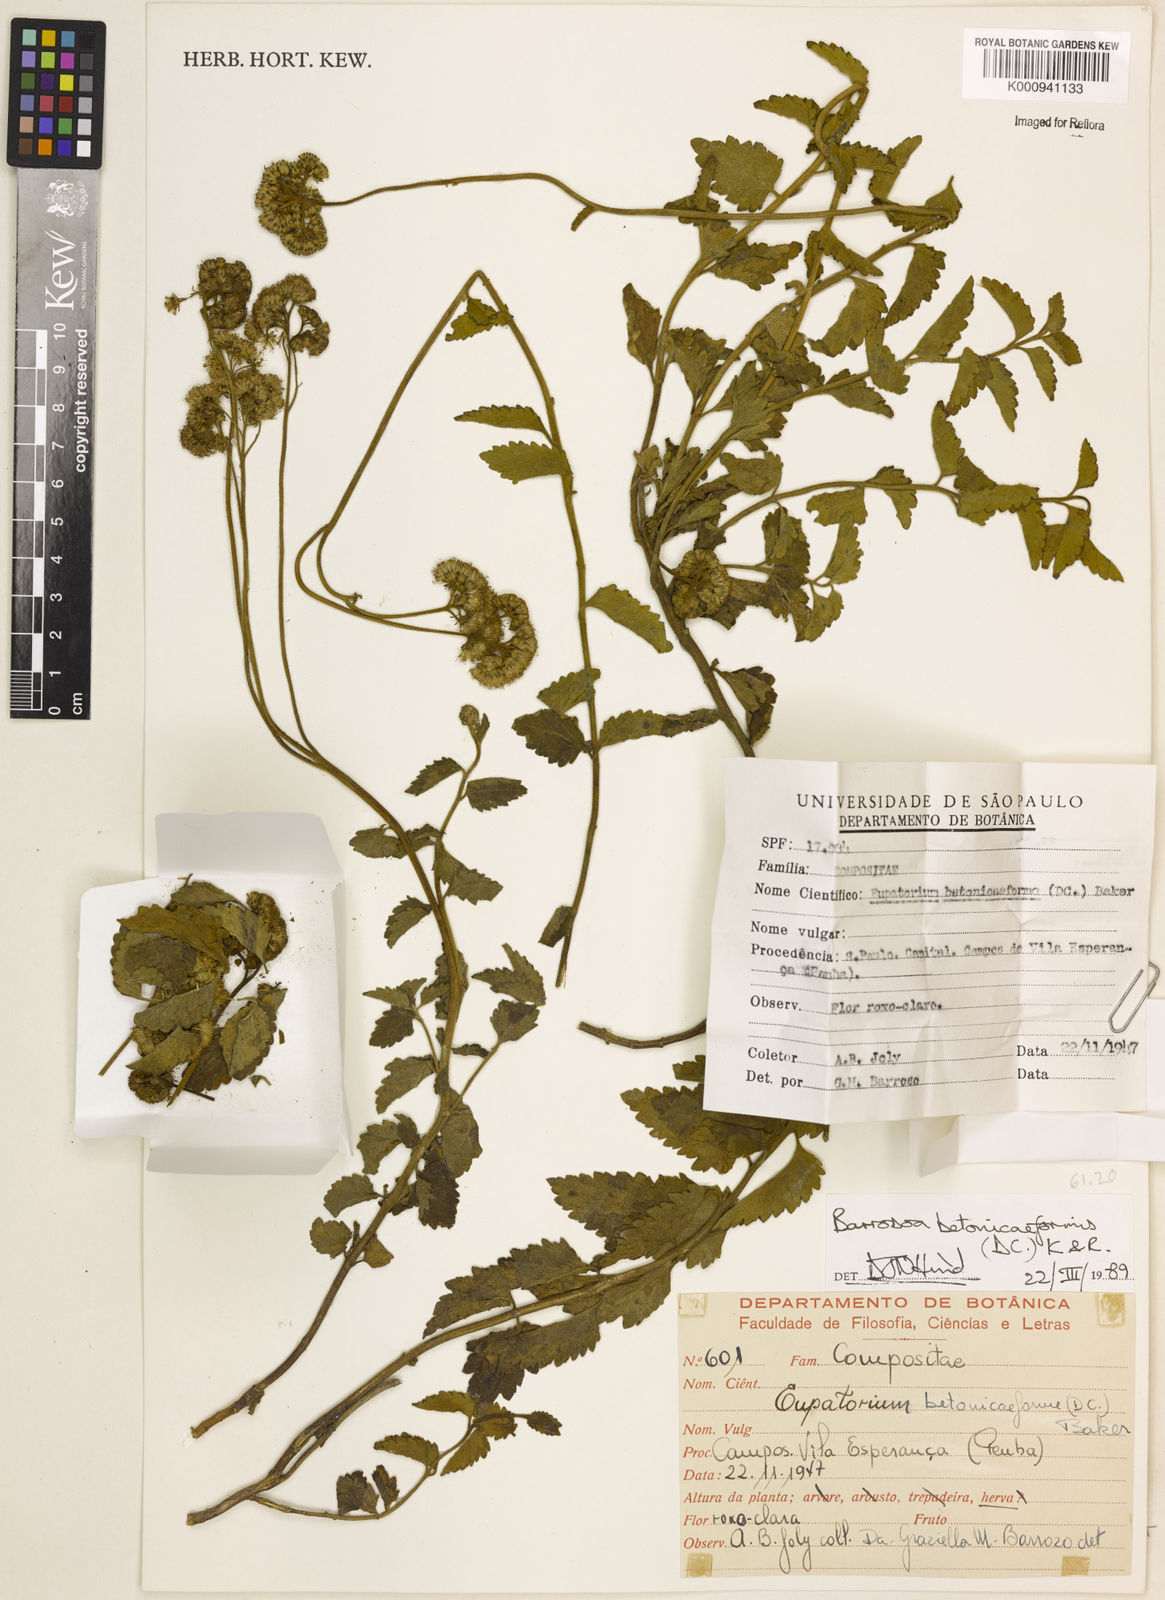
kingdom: Plantae
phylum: Tracheophyta
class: Magnoliopsida
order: Asterales
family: Asteraceae
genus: Barrosoa
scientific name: Barrosoa betoniciformis
